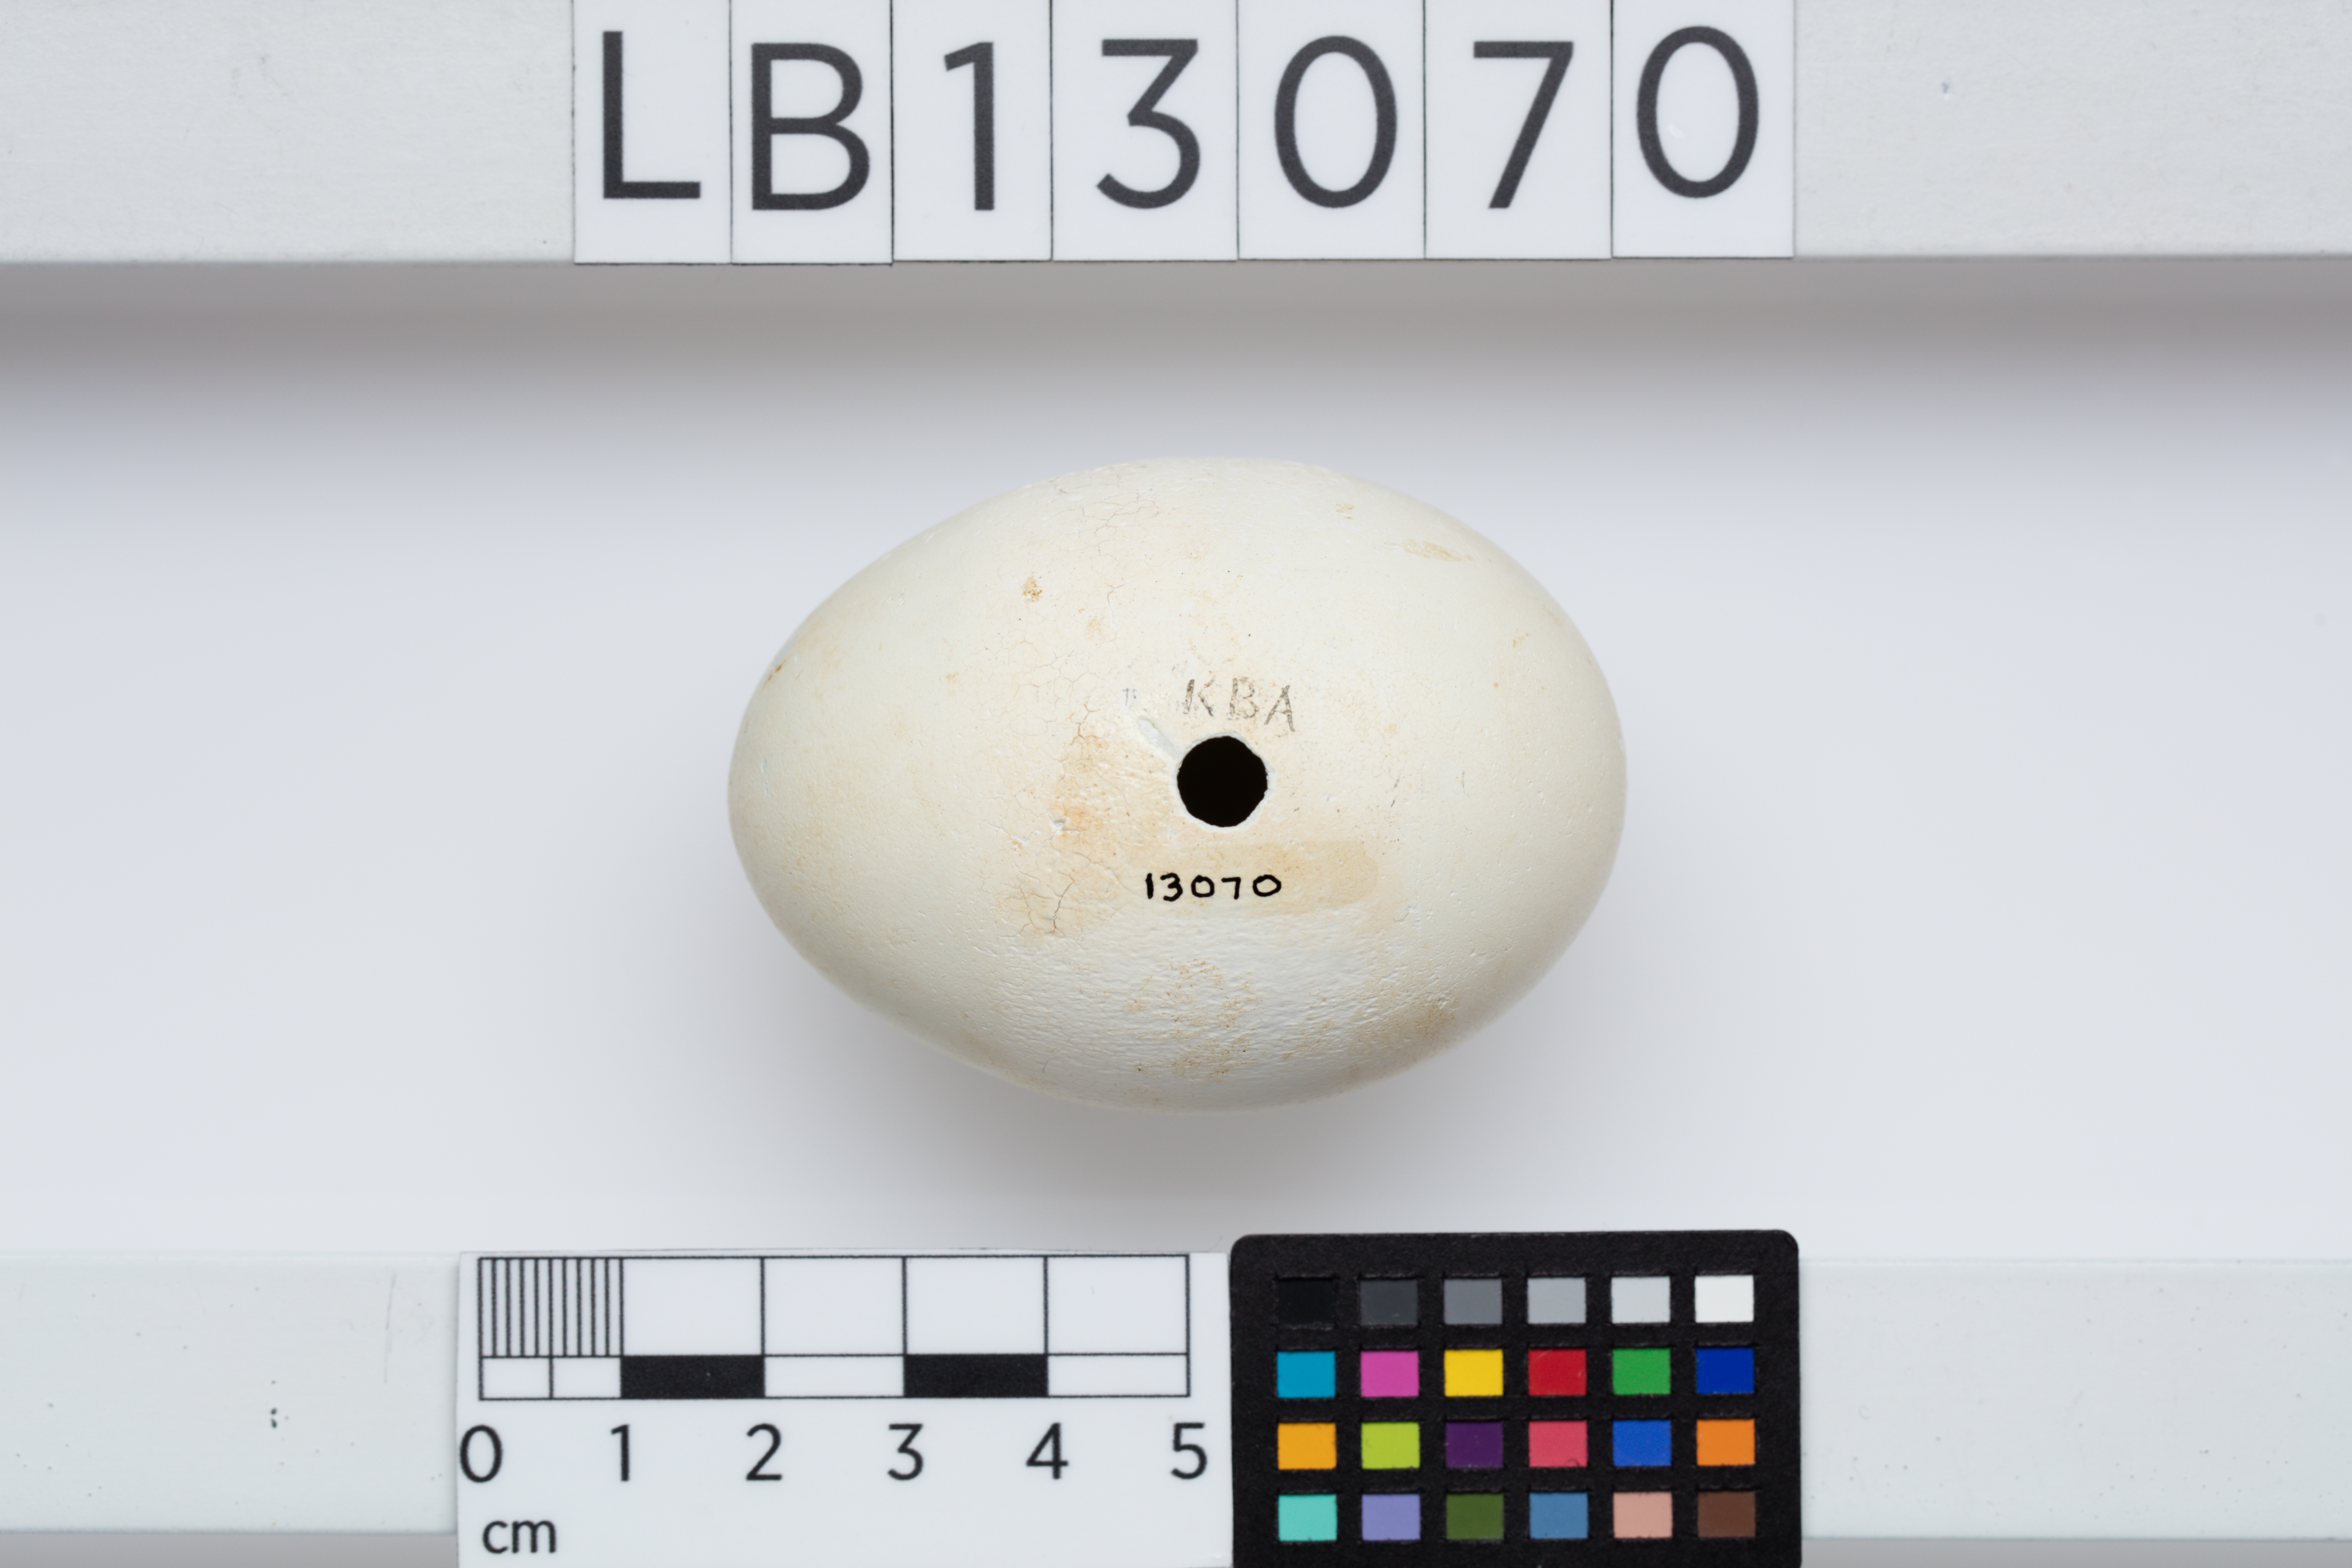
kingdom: Animalia
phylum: Chordata
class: Aves
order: Suliformes
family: Sulidae
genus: Sula
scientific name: Sula dactylatra
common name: Masked booby
